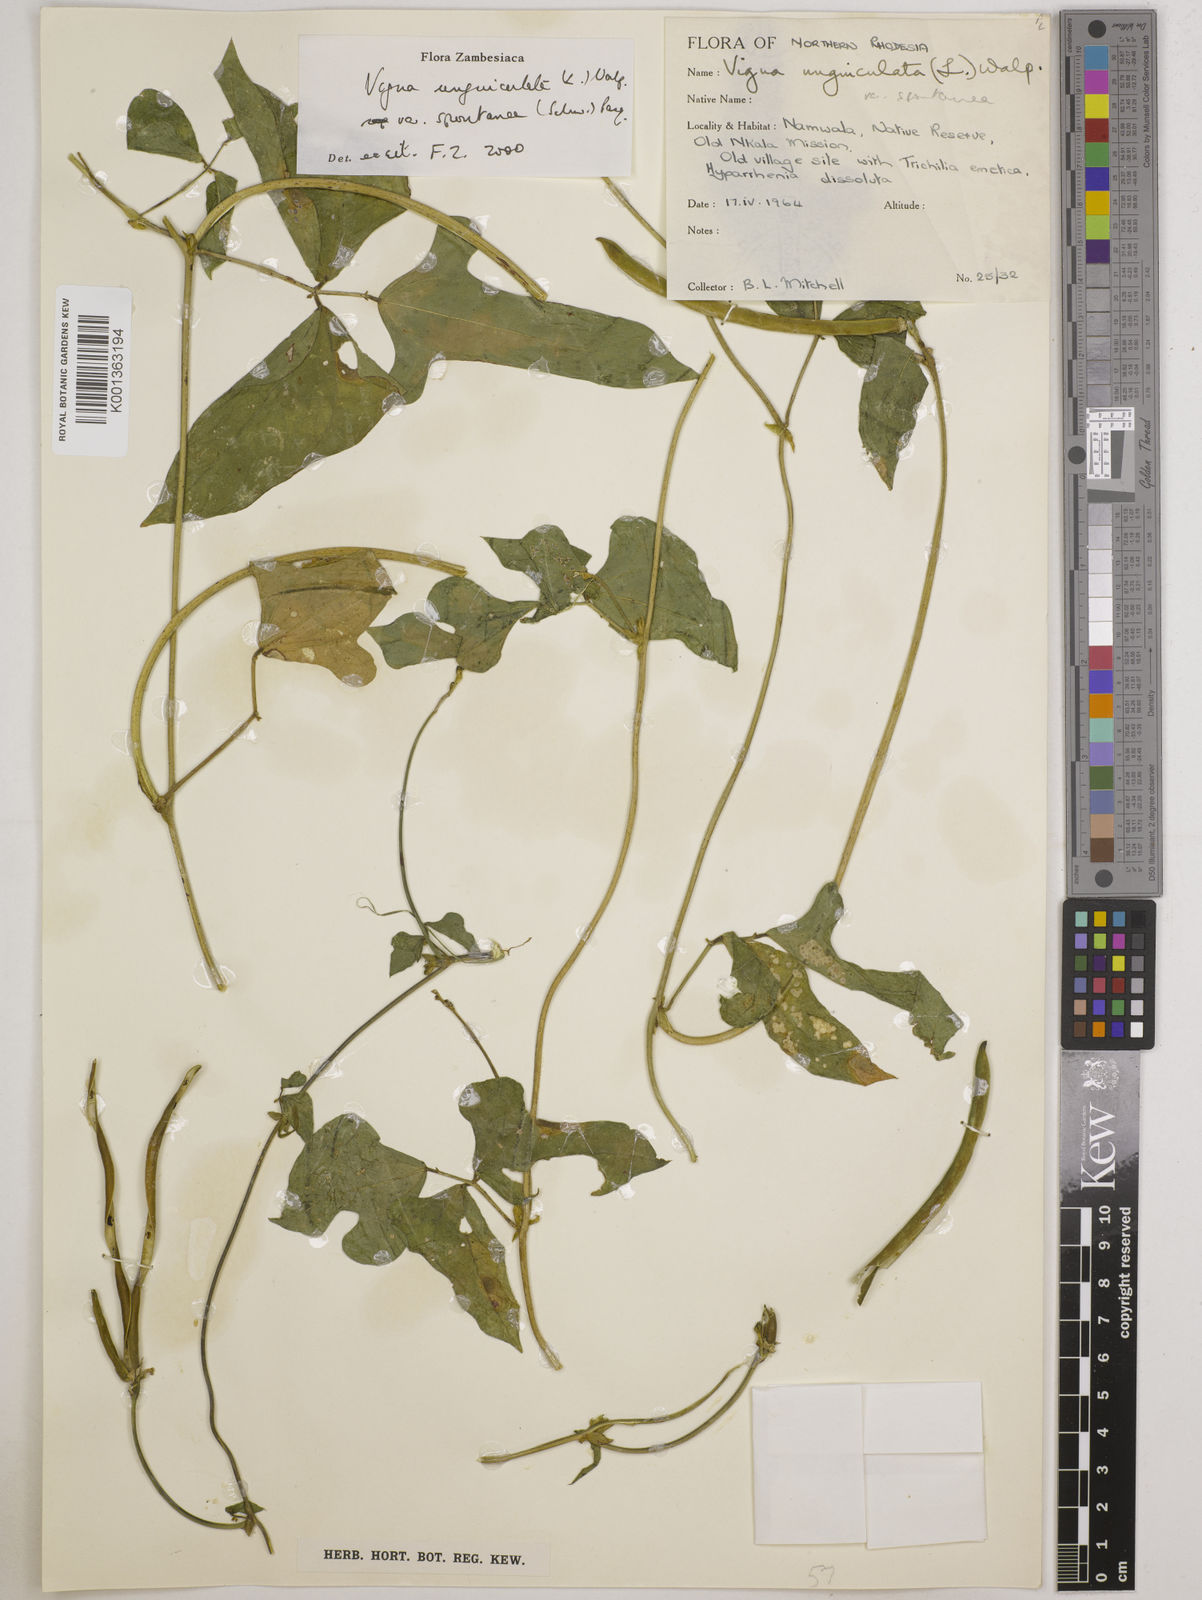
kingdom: Plantae
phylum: Tracheophyta
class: Magnoliopsida
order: Fabales
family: Fabaceae
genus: Vigna
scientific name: Vigna unguiculata
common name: Cowpea
